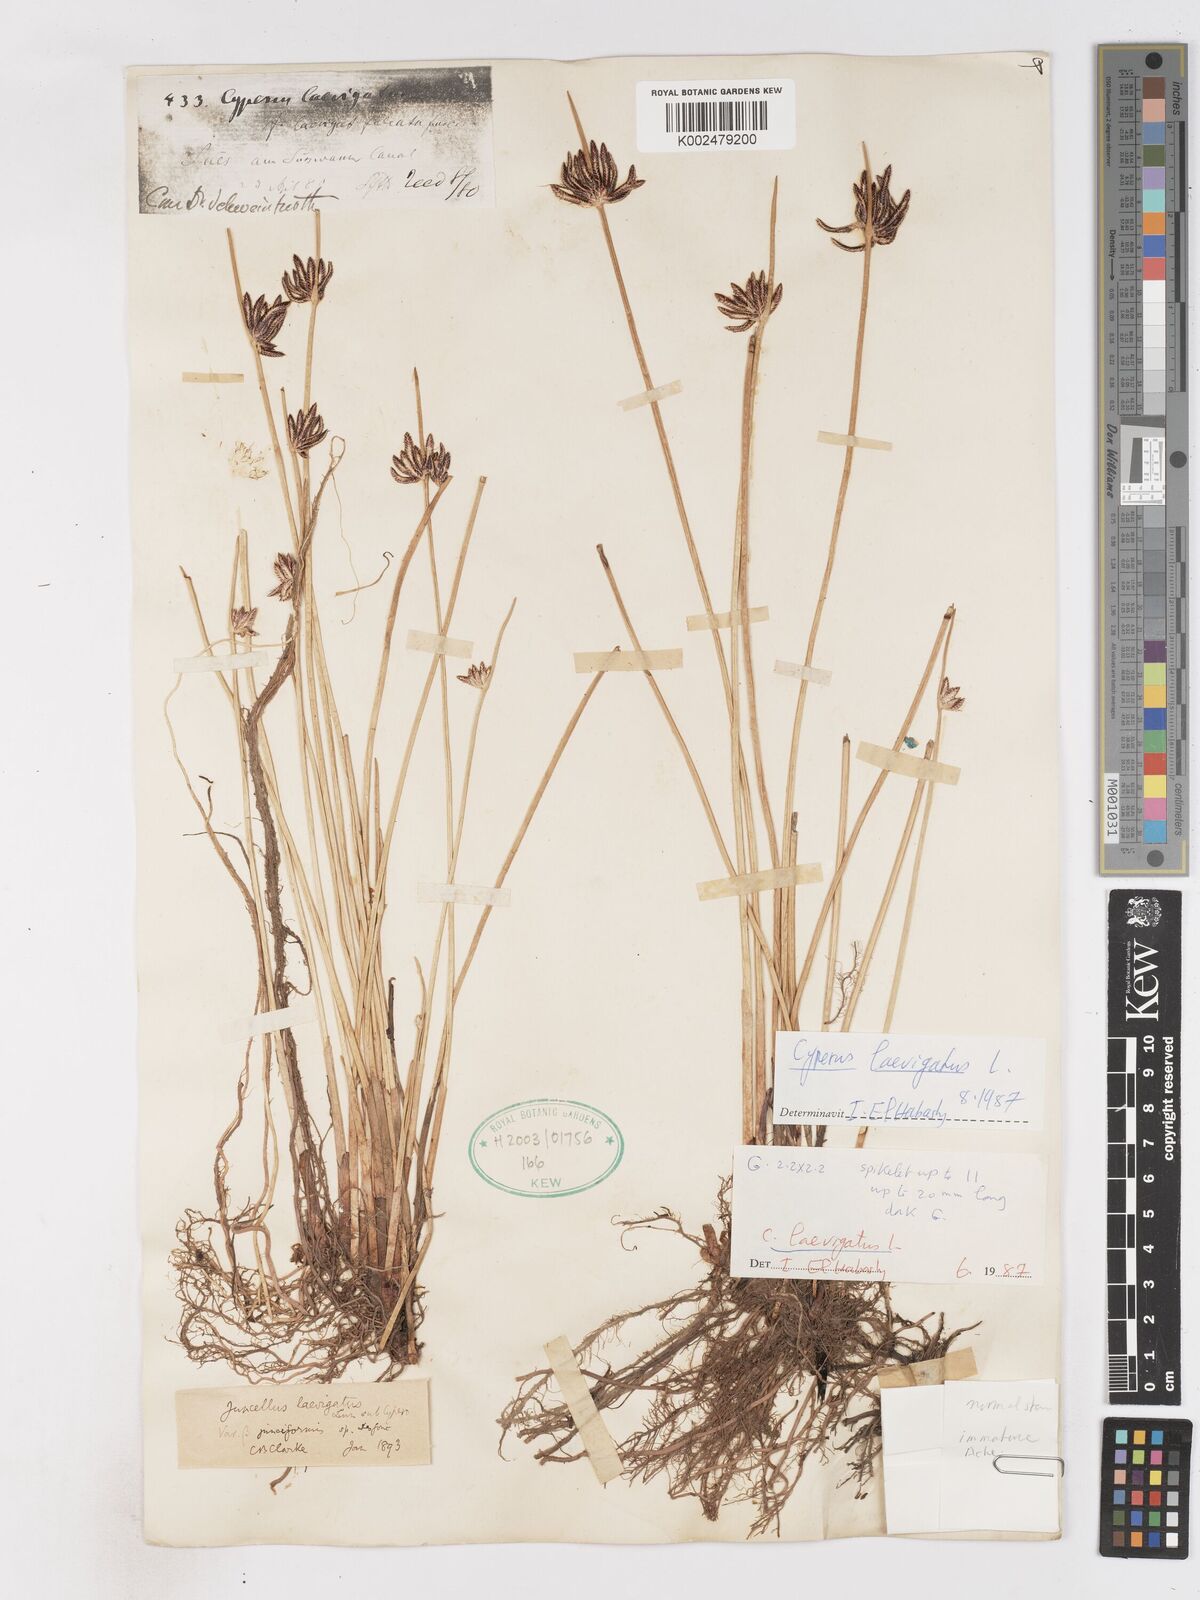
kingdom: Plantae
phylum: Tracheophyta
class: Liliopsida
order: Poales
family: Cyperaceae
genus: Cyperus
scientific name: Cyperus laevigatus
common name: Smooth flat sedge
